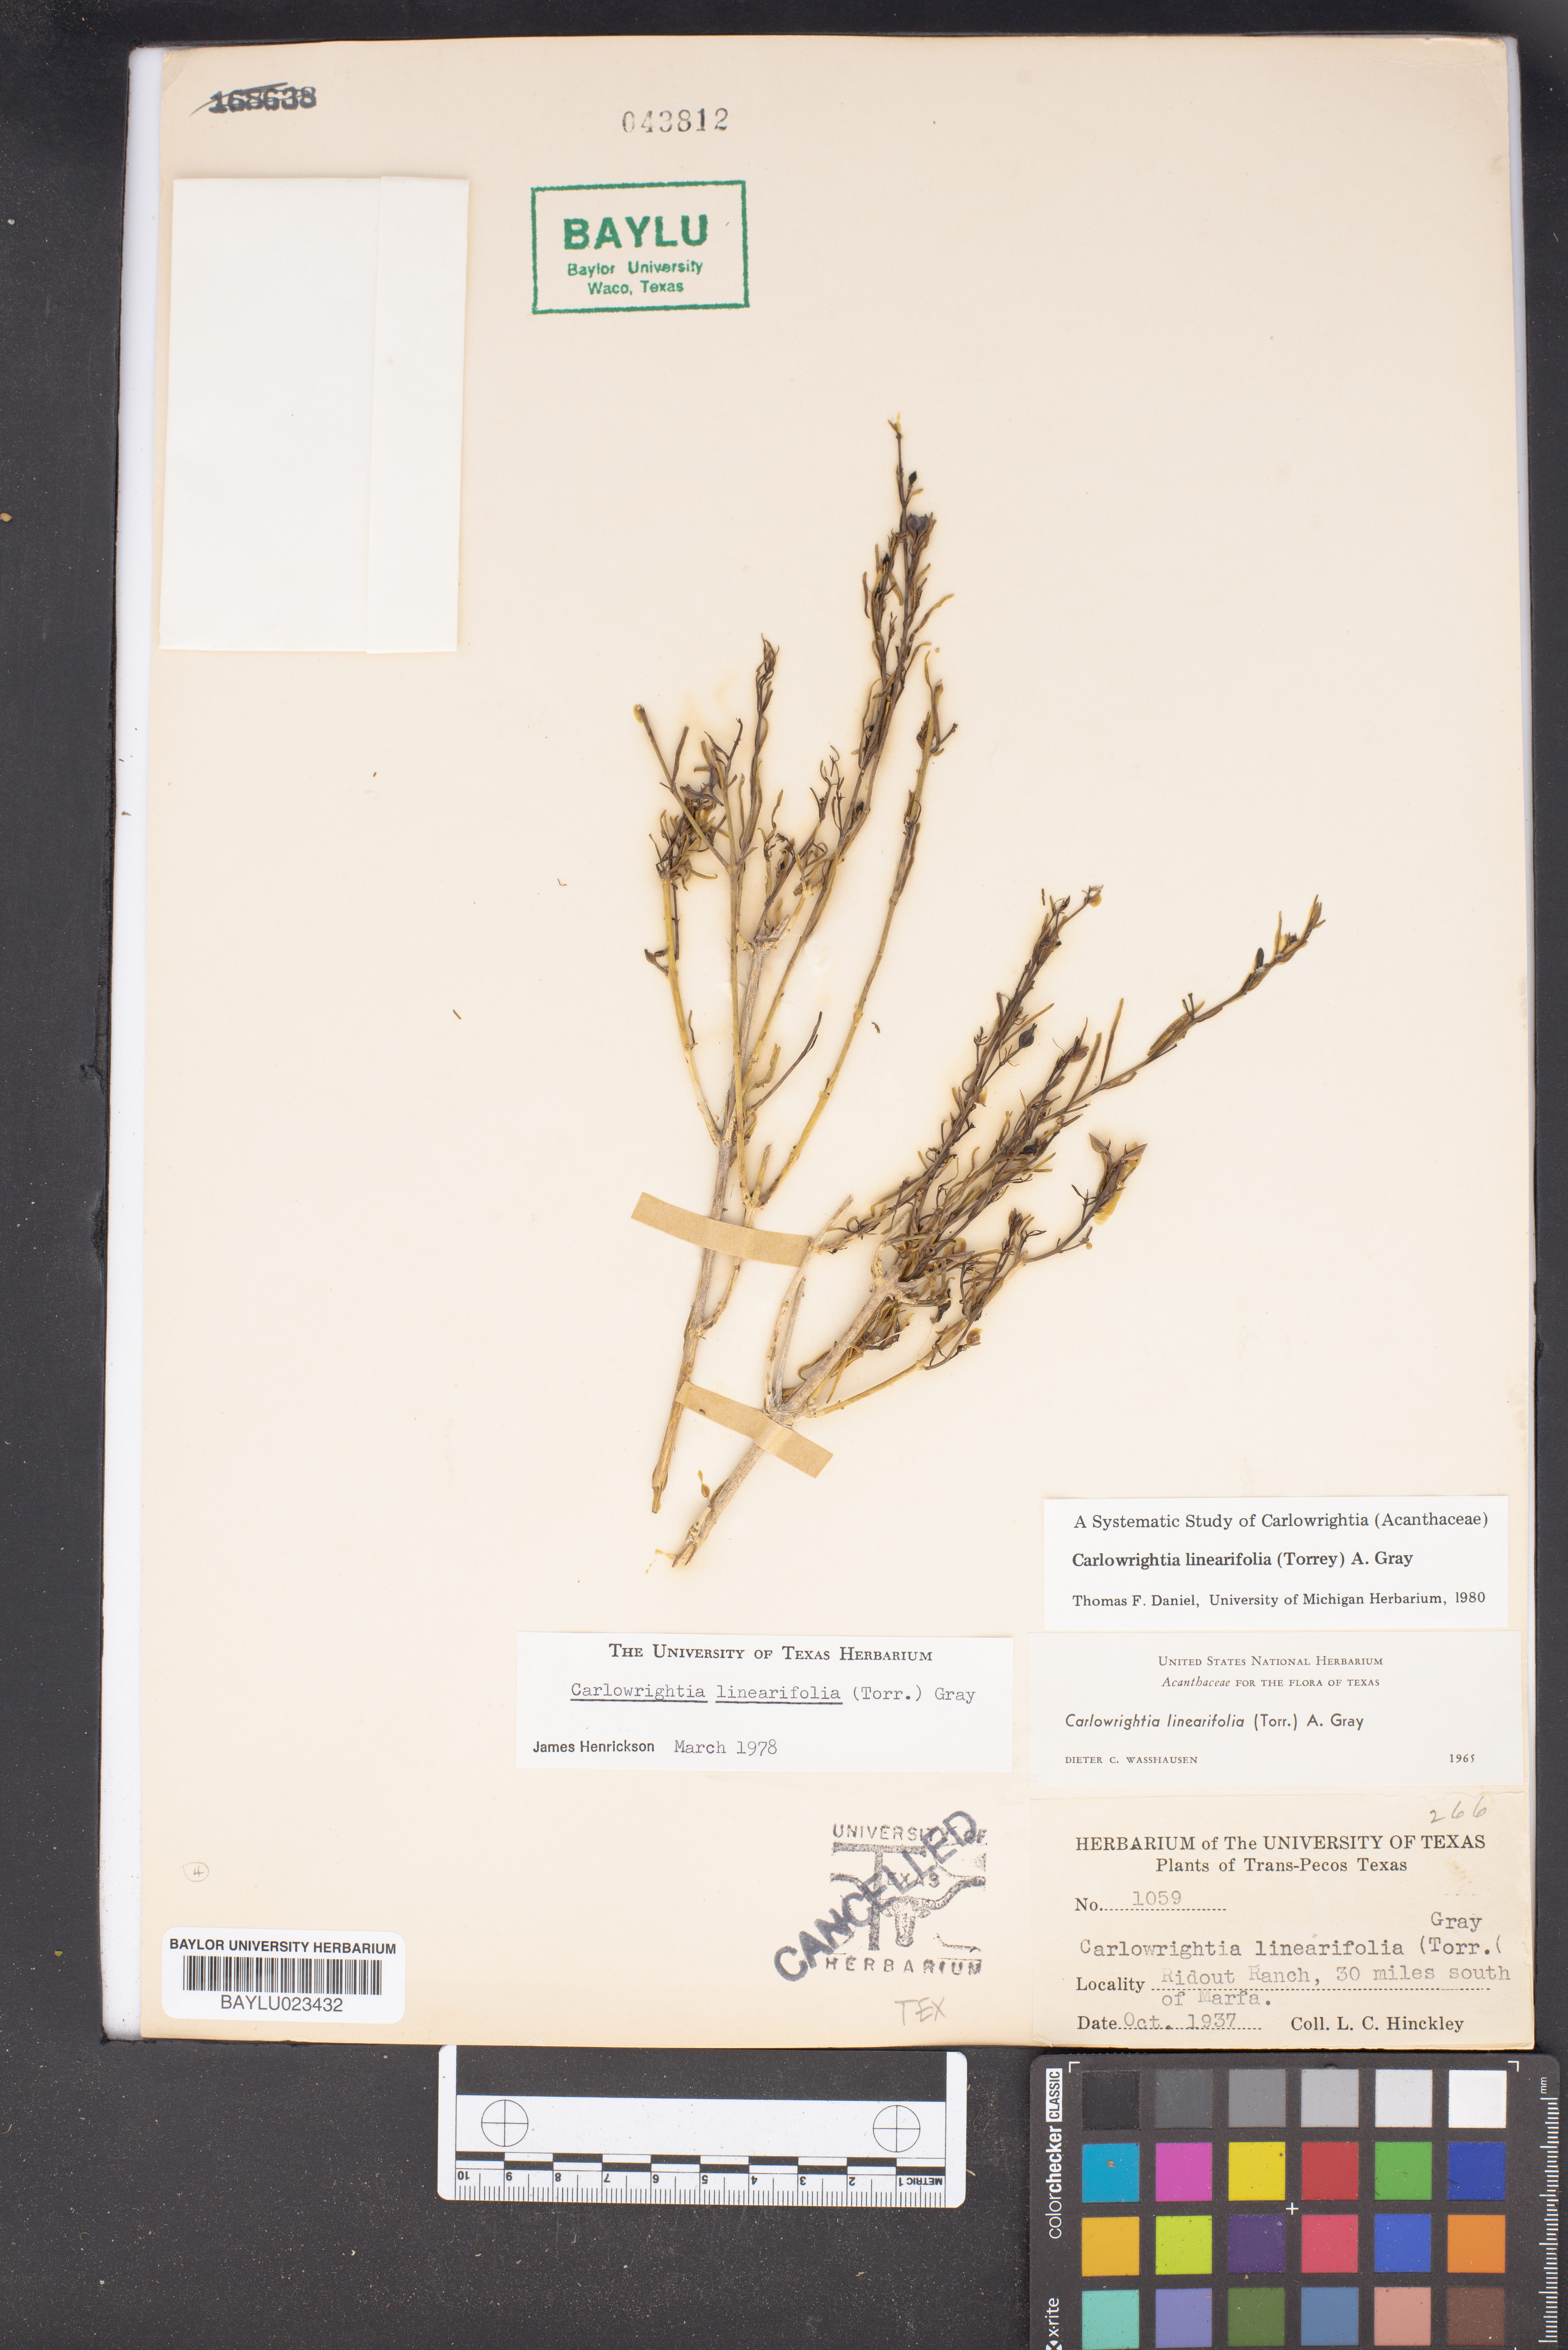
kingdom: Plantae
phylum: Tracheophyta
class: Magnoliopsida
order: Lamiales
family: Acanthaceae
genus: Carlowrightia
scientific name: Carlowrightia linearifolia
